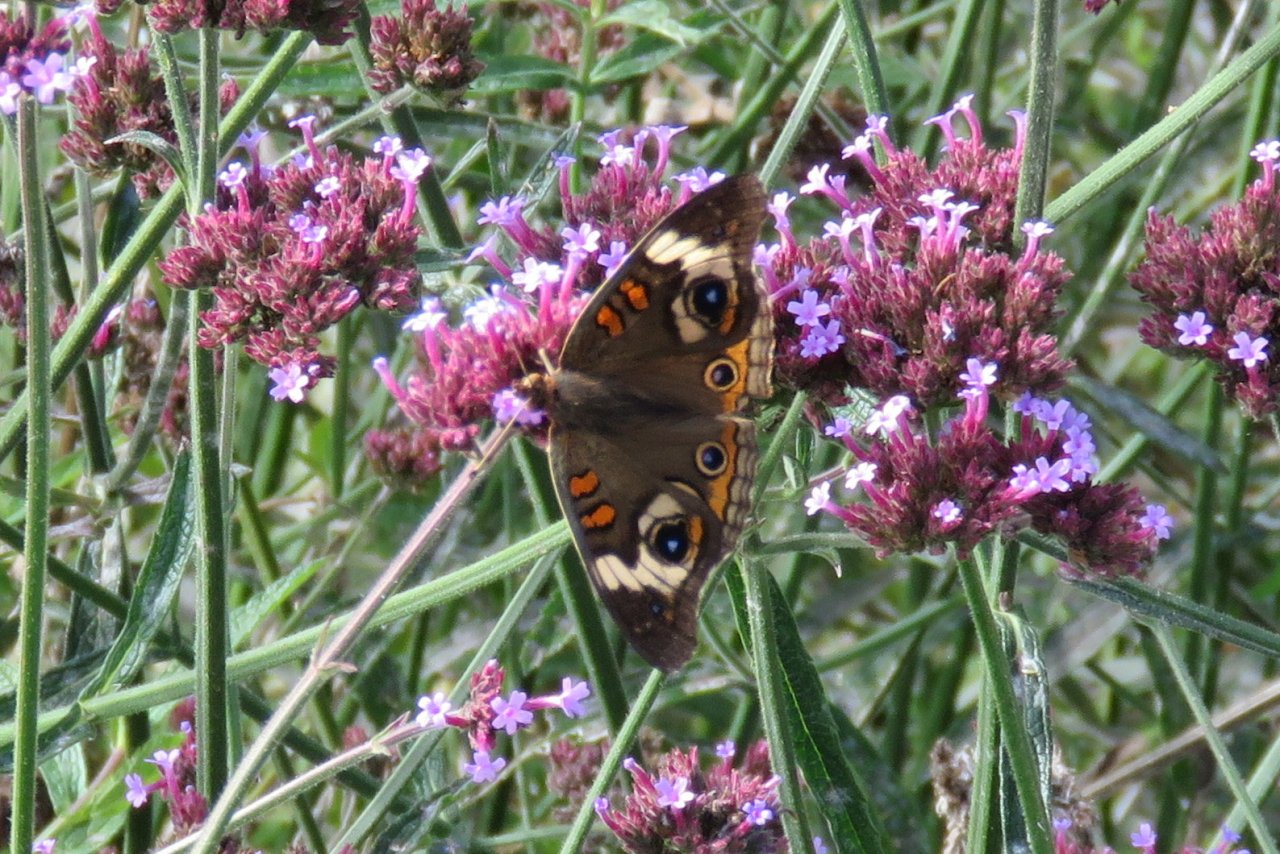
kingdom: Animalia
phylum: Arthropoda
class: Insecta
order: Lepidoptera
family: Nymphalidae
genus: Junonia
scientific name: Junonia coenia
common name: Common Buckeye
